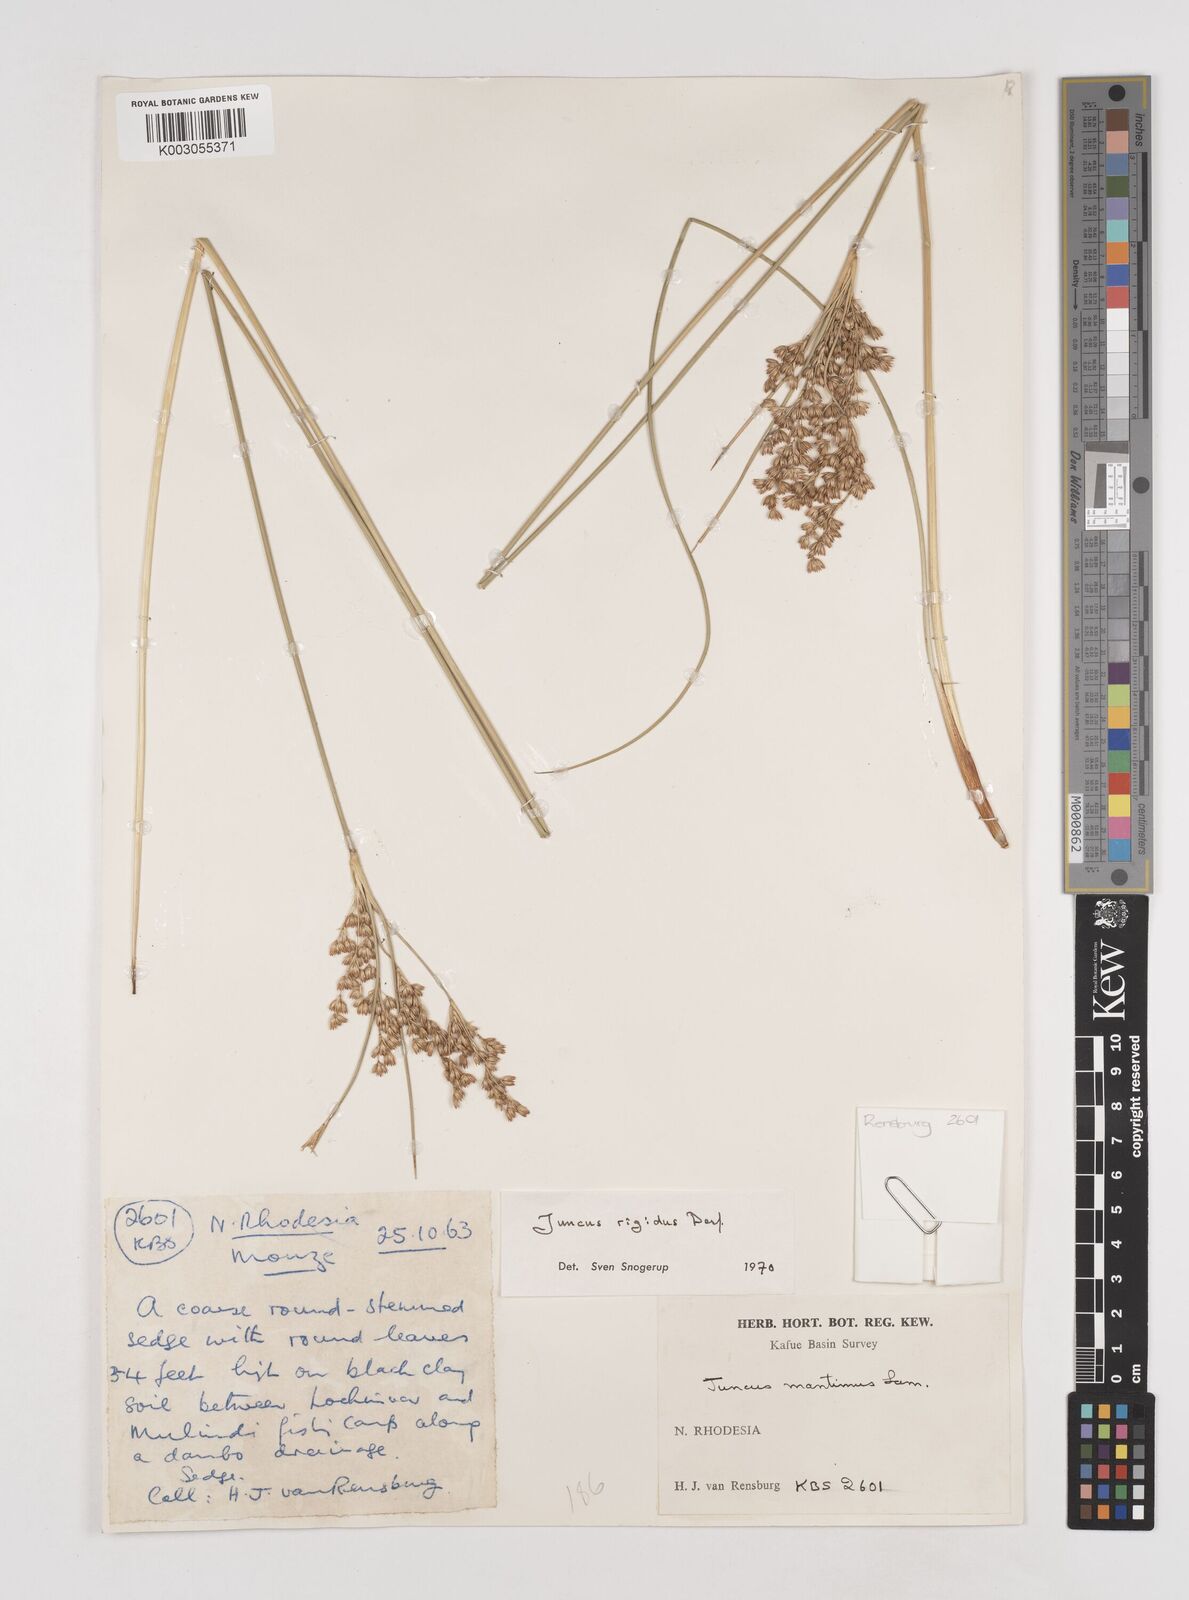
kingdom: Plantae
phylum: Tracheophyta
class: Liliopsida
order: Poales
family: Juncaceae
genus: Juncus
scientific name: Juncus rigidus
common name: Hard sea rush
